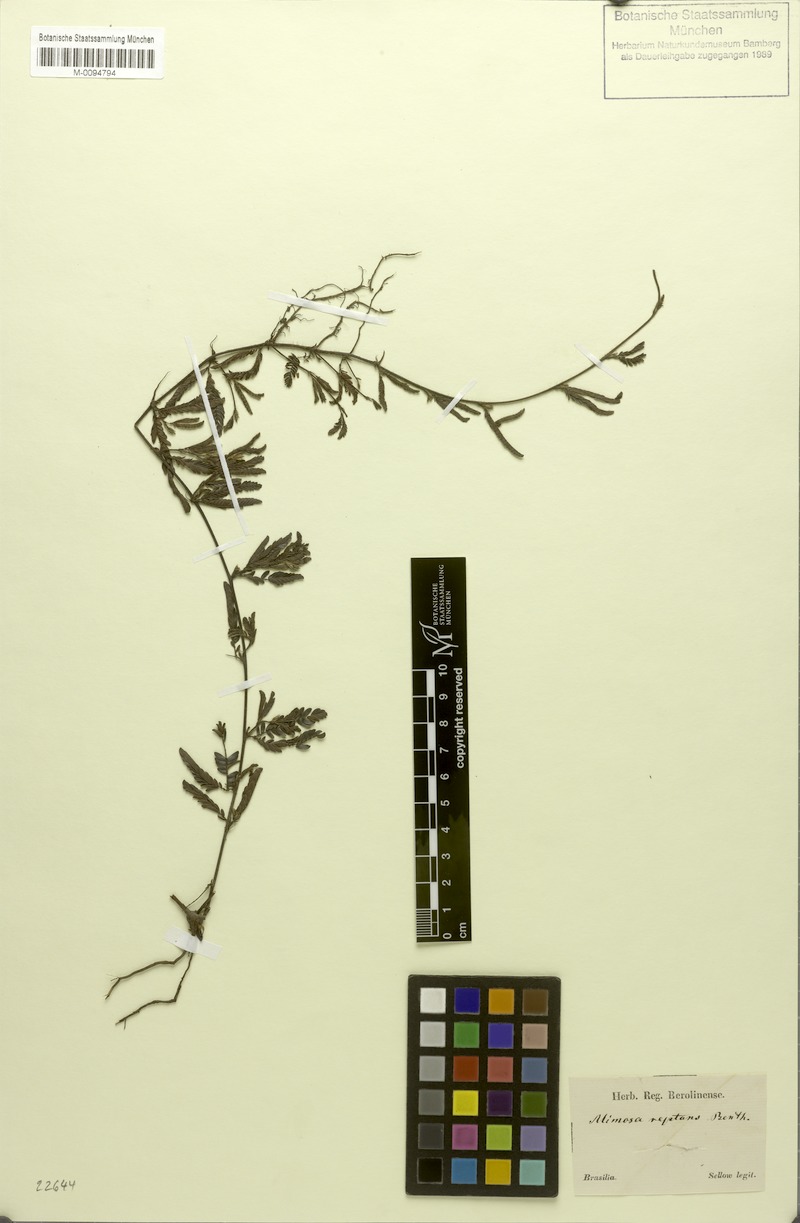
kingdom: Plantae
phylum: Tracheophyta
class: Magnoliopsida
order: Fabales
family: Fabaceae
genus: Mimosa
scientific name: Mimosa reptans
